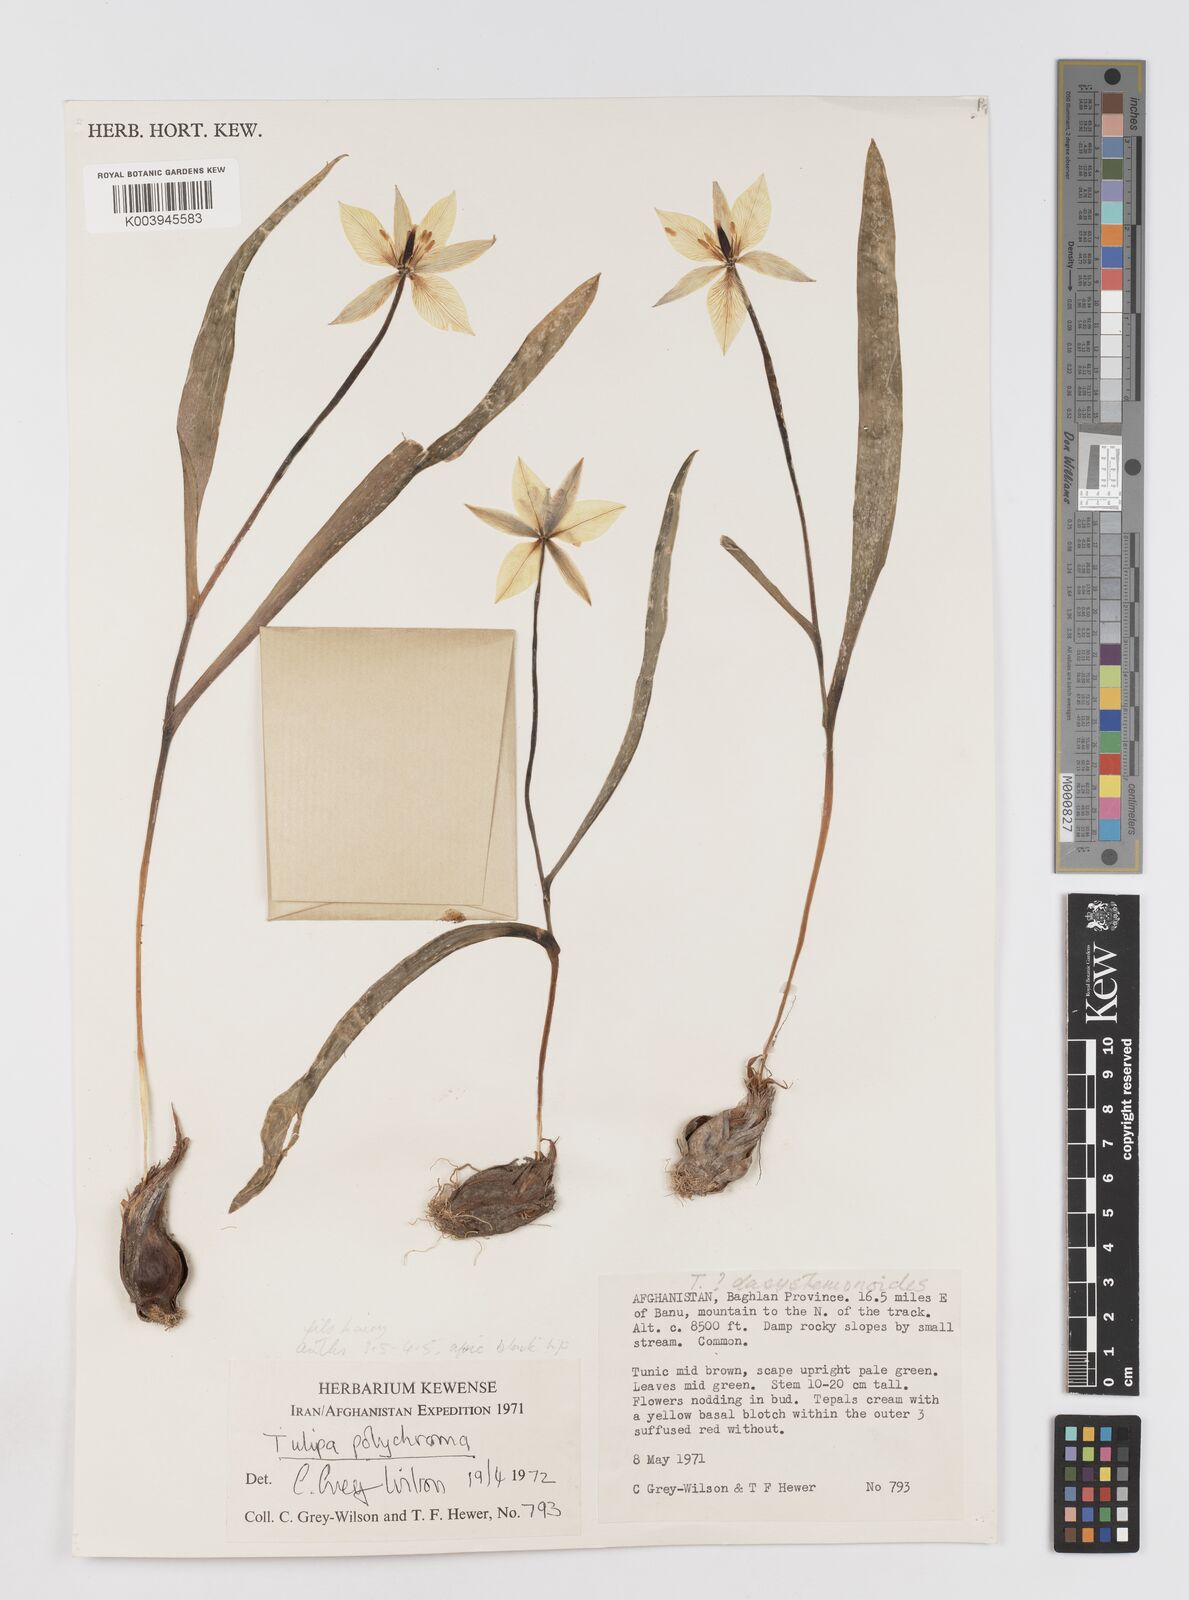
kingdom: Plantae
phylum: Tracheophyta
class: Liliopsida
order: Liliales
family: Liliaceae
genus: Tulipa
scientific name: Tulipa dasystemon
